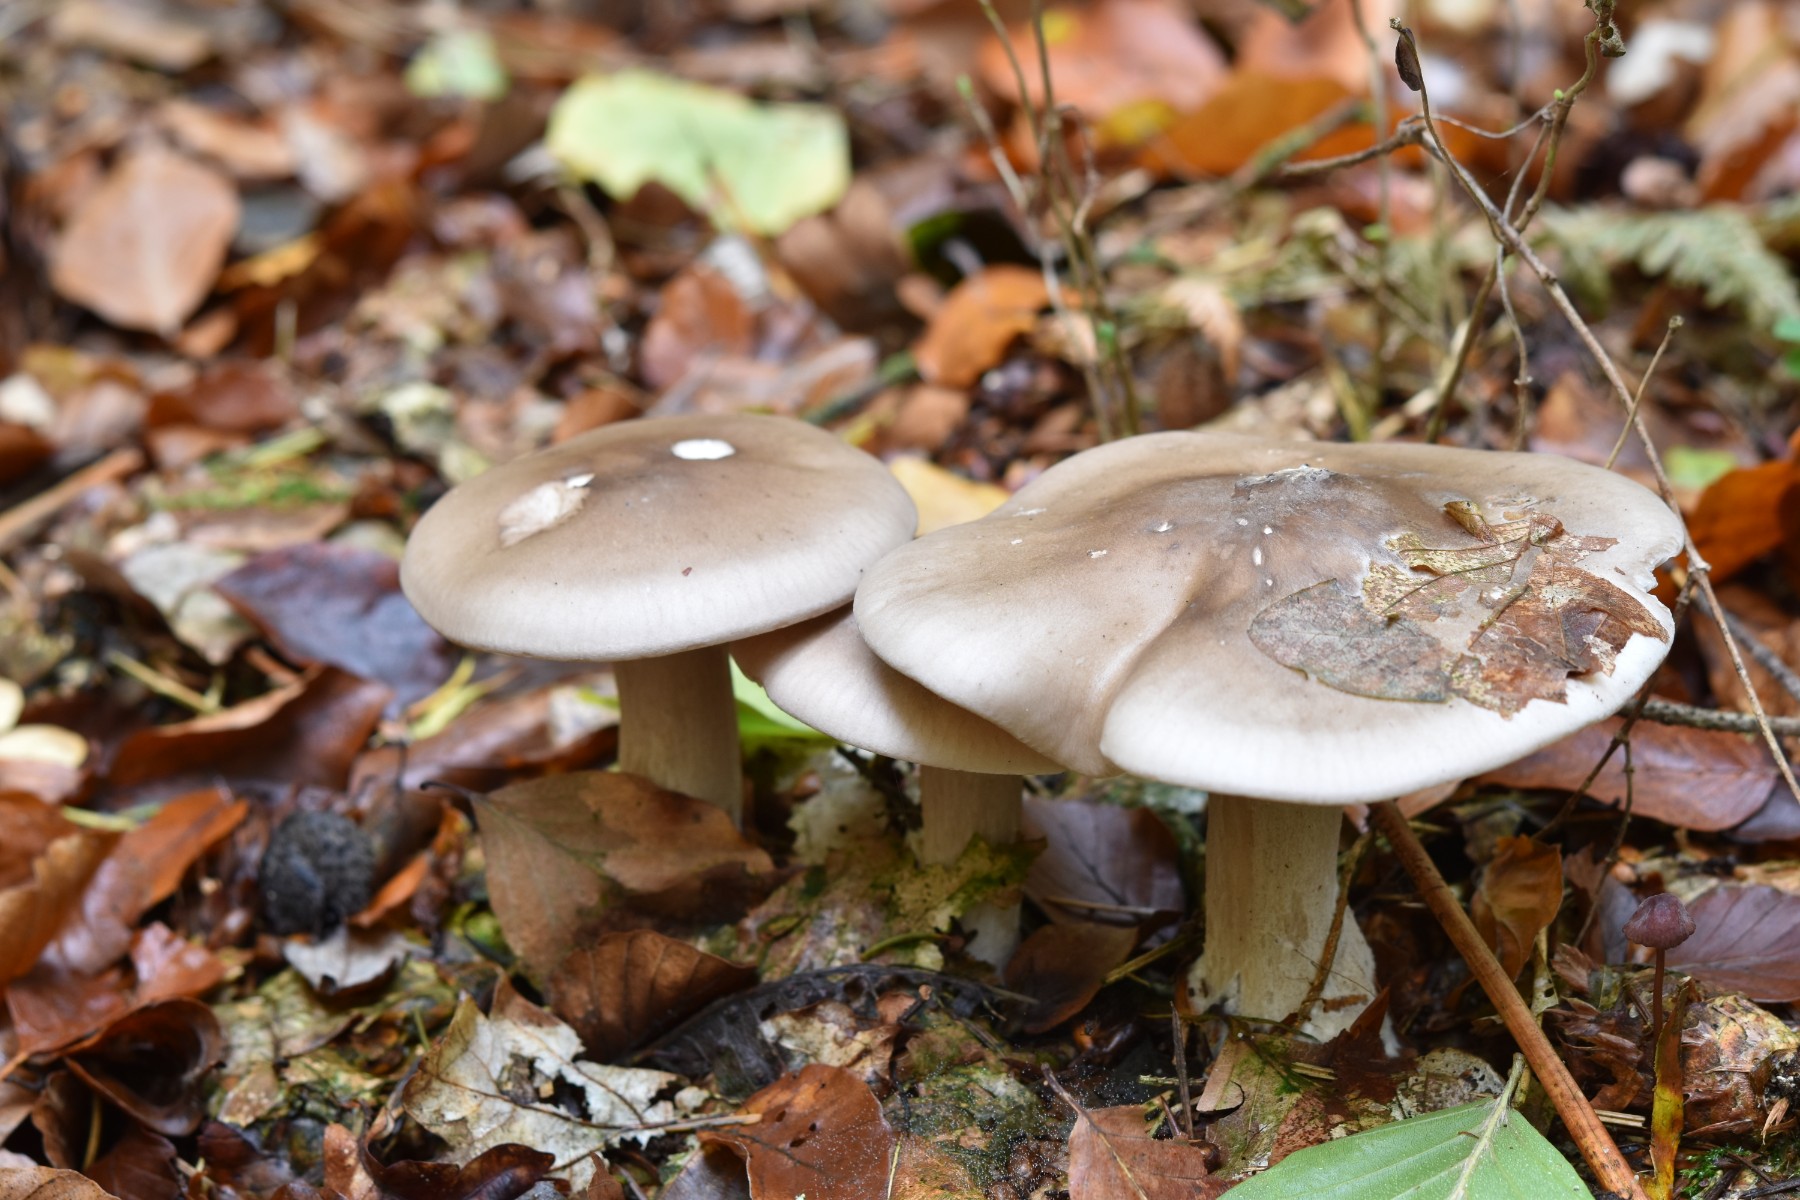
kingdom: Fungi
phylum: Basidiomycota
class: Agaricomycetes
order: Agaricales
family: Tricholomataceae
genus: Clitocybe
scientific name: Clitocybe nebularis
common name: tåge-tragthat
